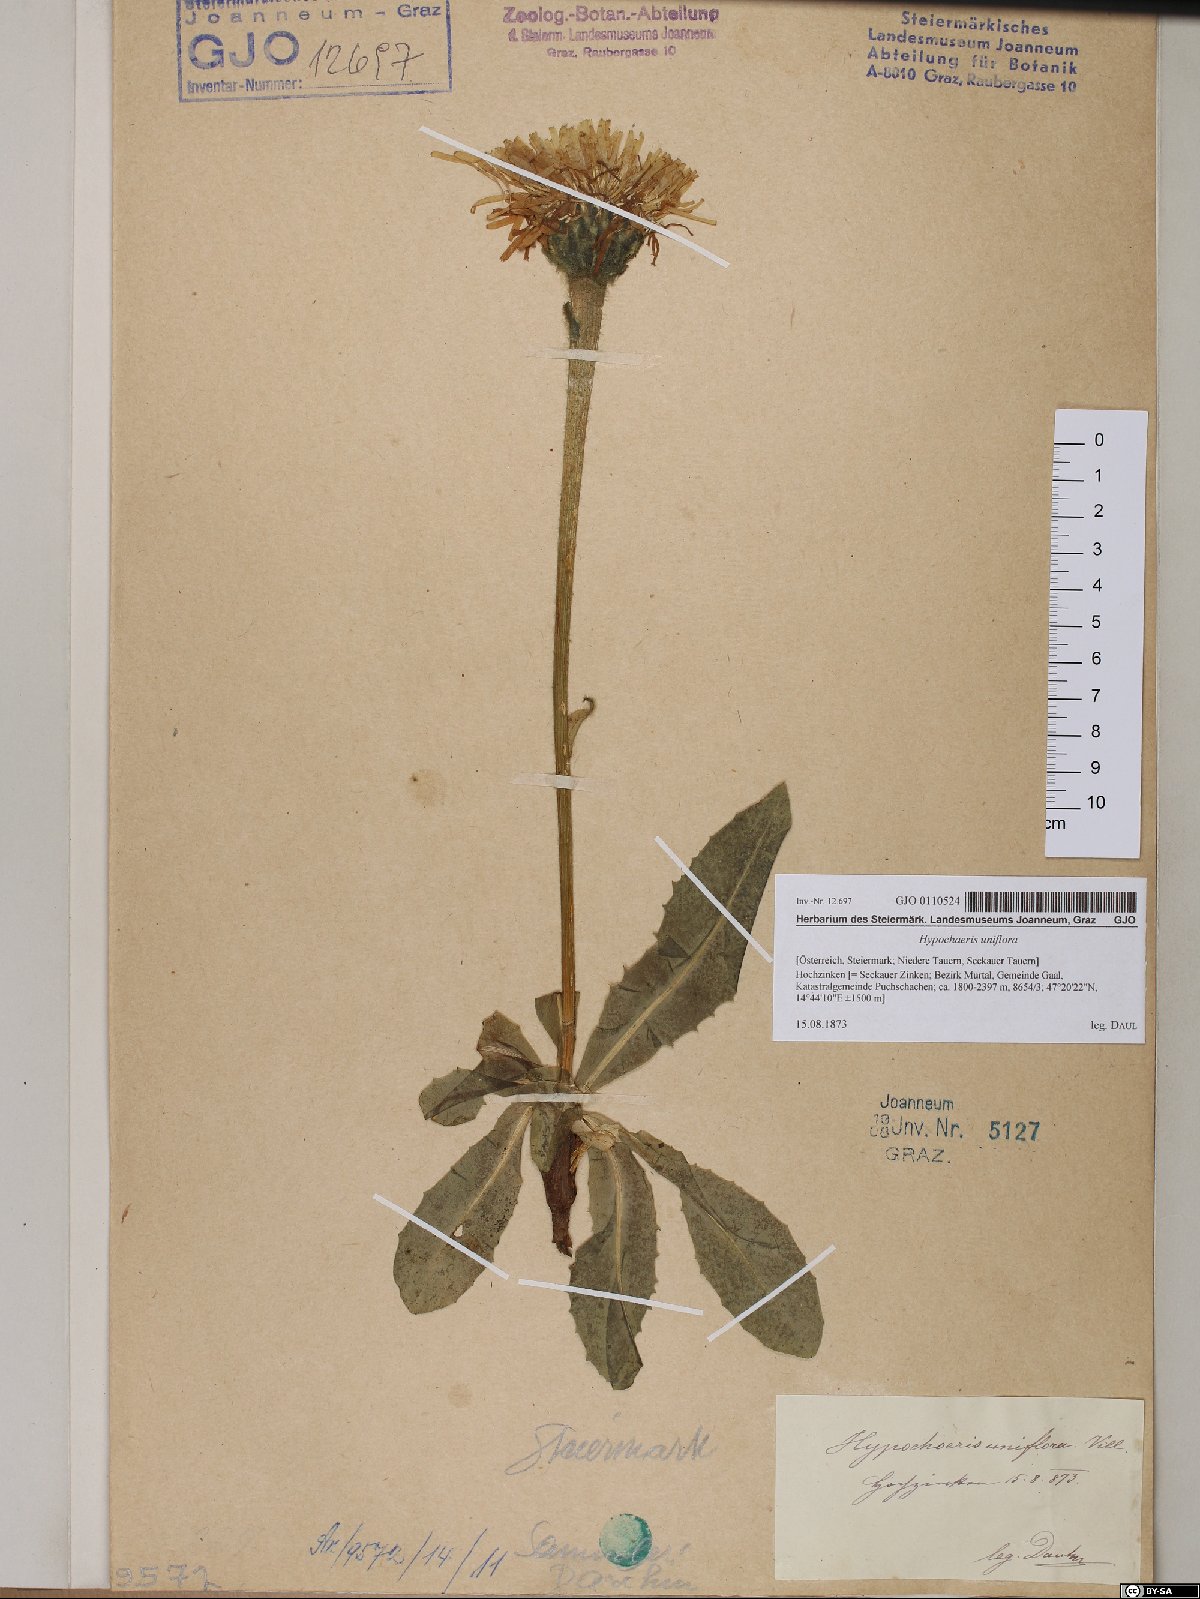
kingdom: Plantae
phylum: Tracheophyta
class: Magnoliopsida
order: Asterales
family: Asteraceae
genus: Trommsdorffia
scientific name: Trommsdorffia uniflora
